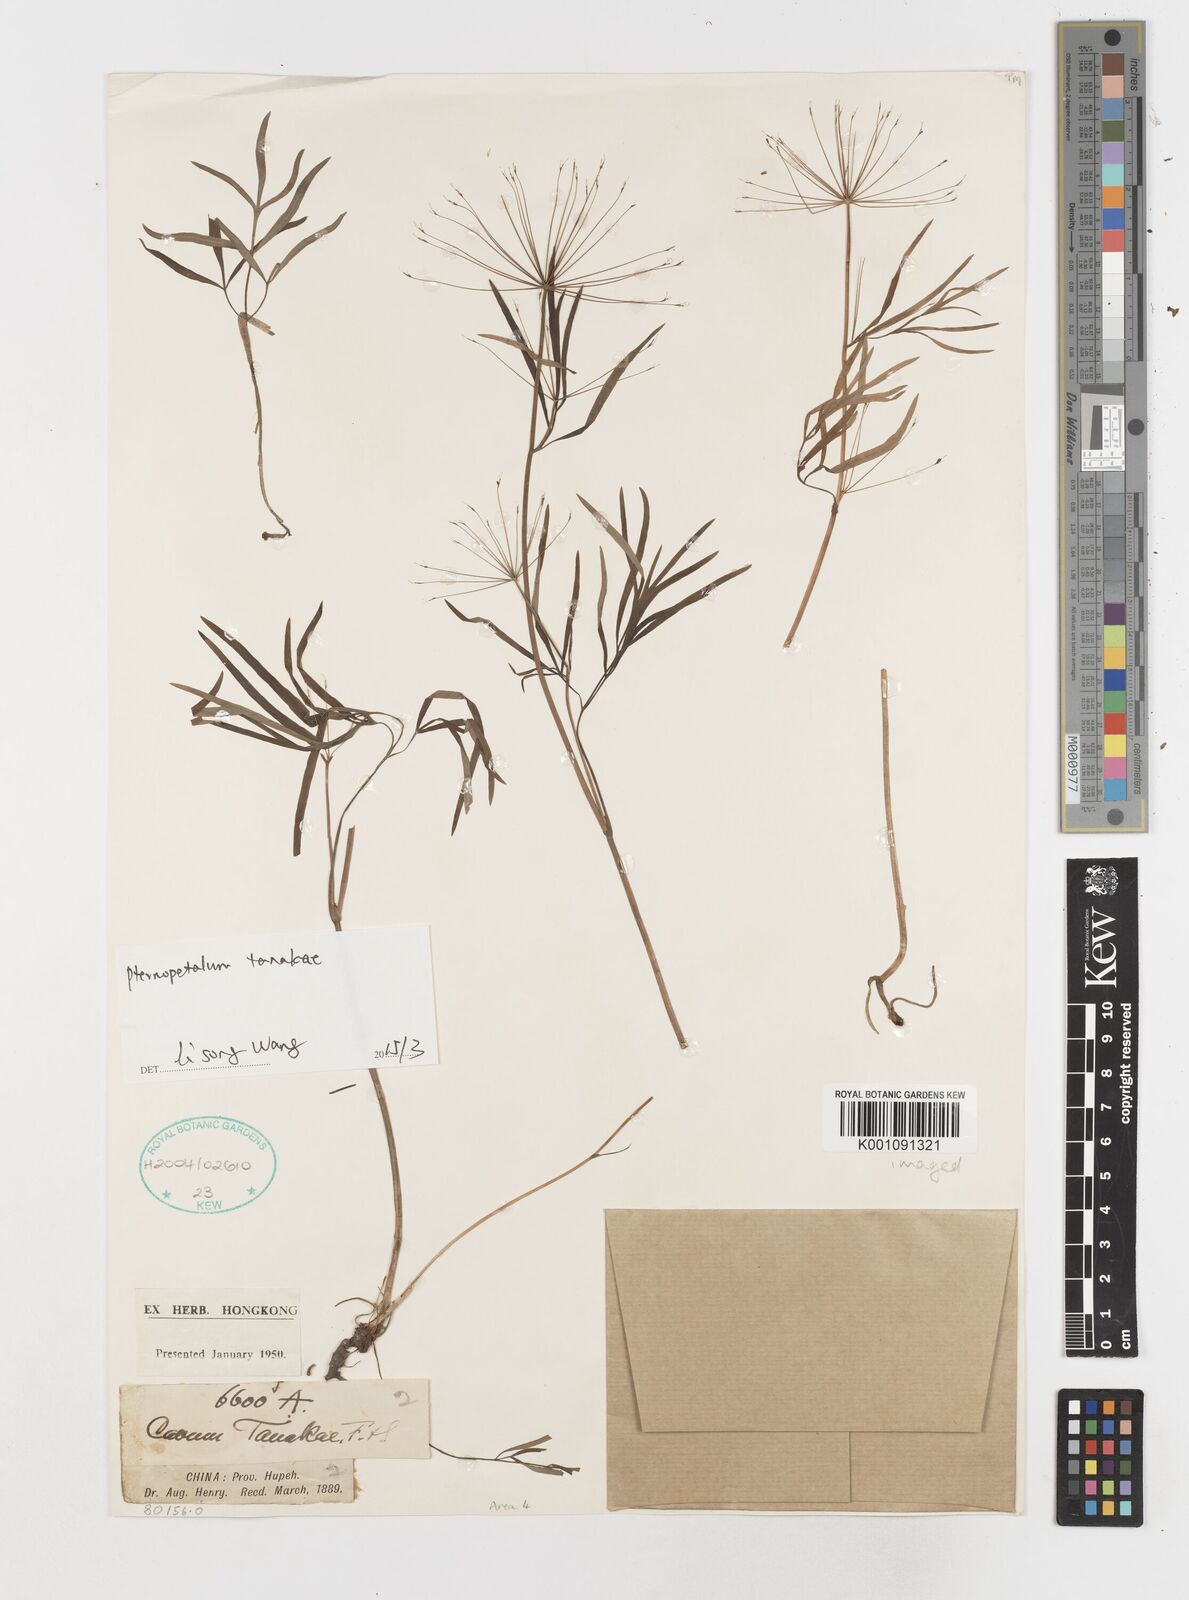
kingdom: Plantae
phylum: Tracheophyta
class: Magnoliopsida
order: Apiales
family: Apiaceae
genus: Pternopetalum
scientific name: Pternopetalum tanakae
